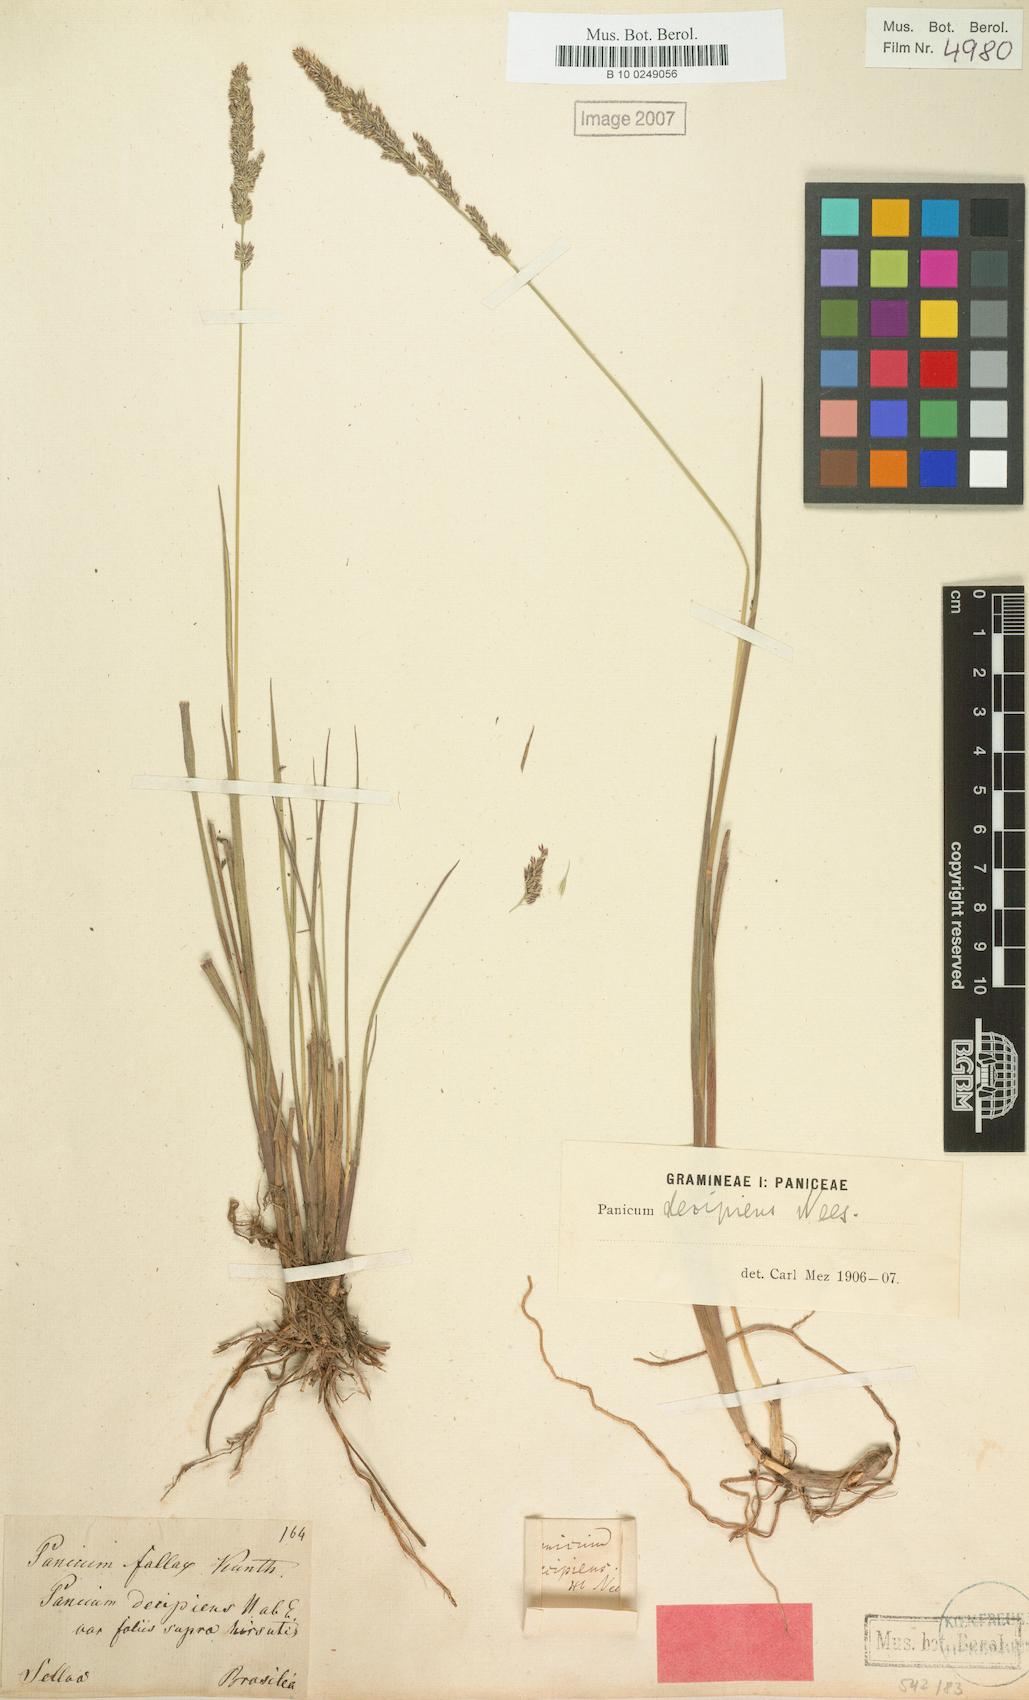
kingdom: Plantae
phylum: Tracheophyta
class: Liliopsida
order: Poales
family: Poaceae
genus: Steinchisma
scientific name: Steinchisma decipiens
